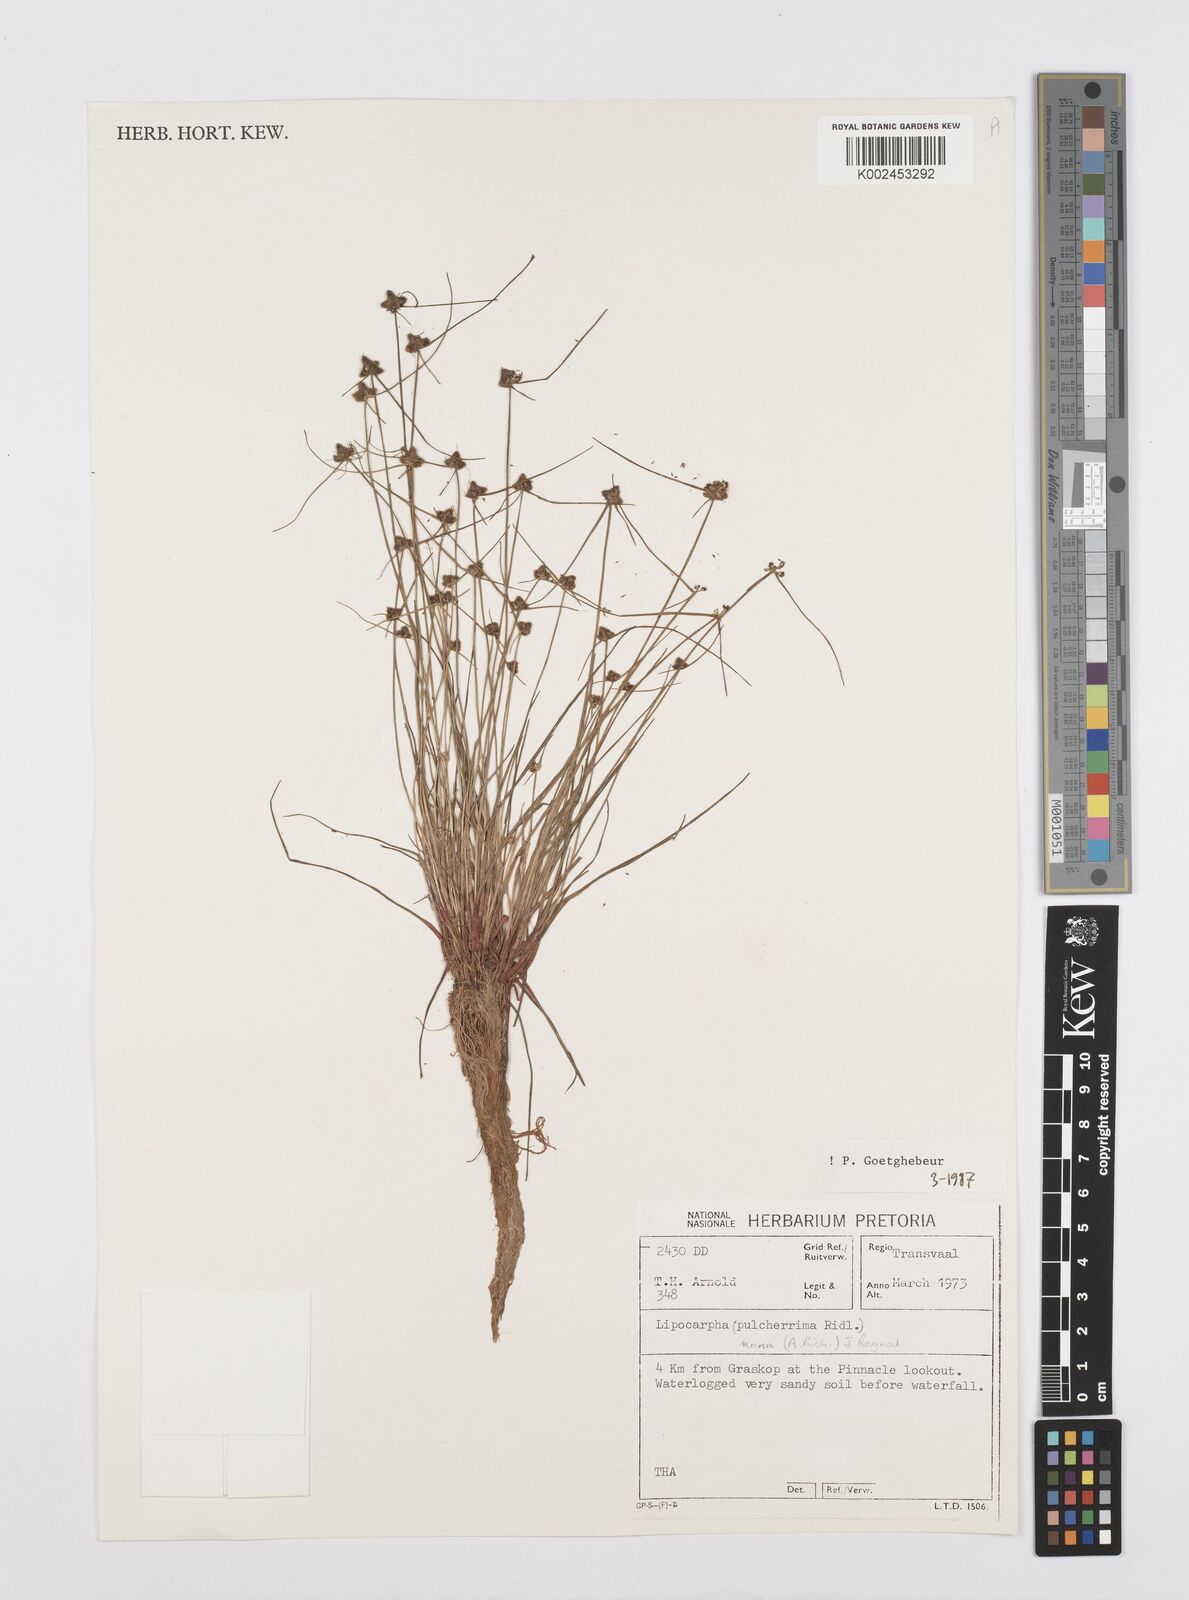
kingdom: Plantae
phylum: Tracheophyta
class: Liliopsida
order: Poales
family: Cyperaceae
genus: Cyperus
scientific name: Cyperus
